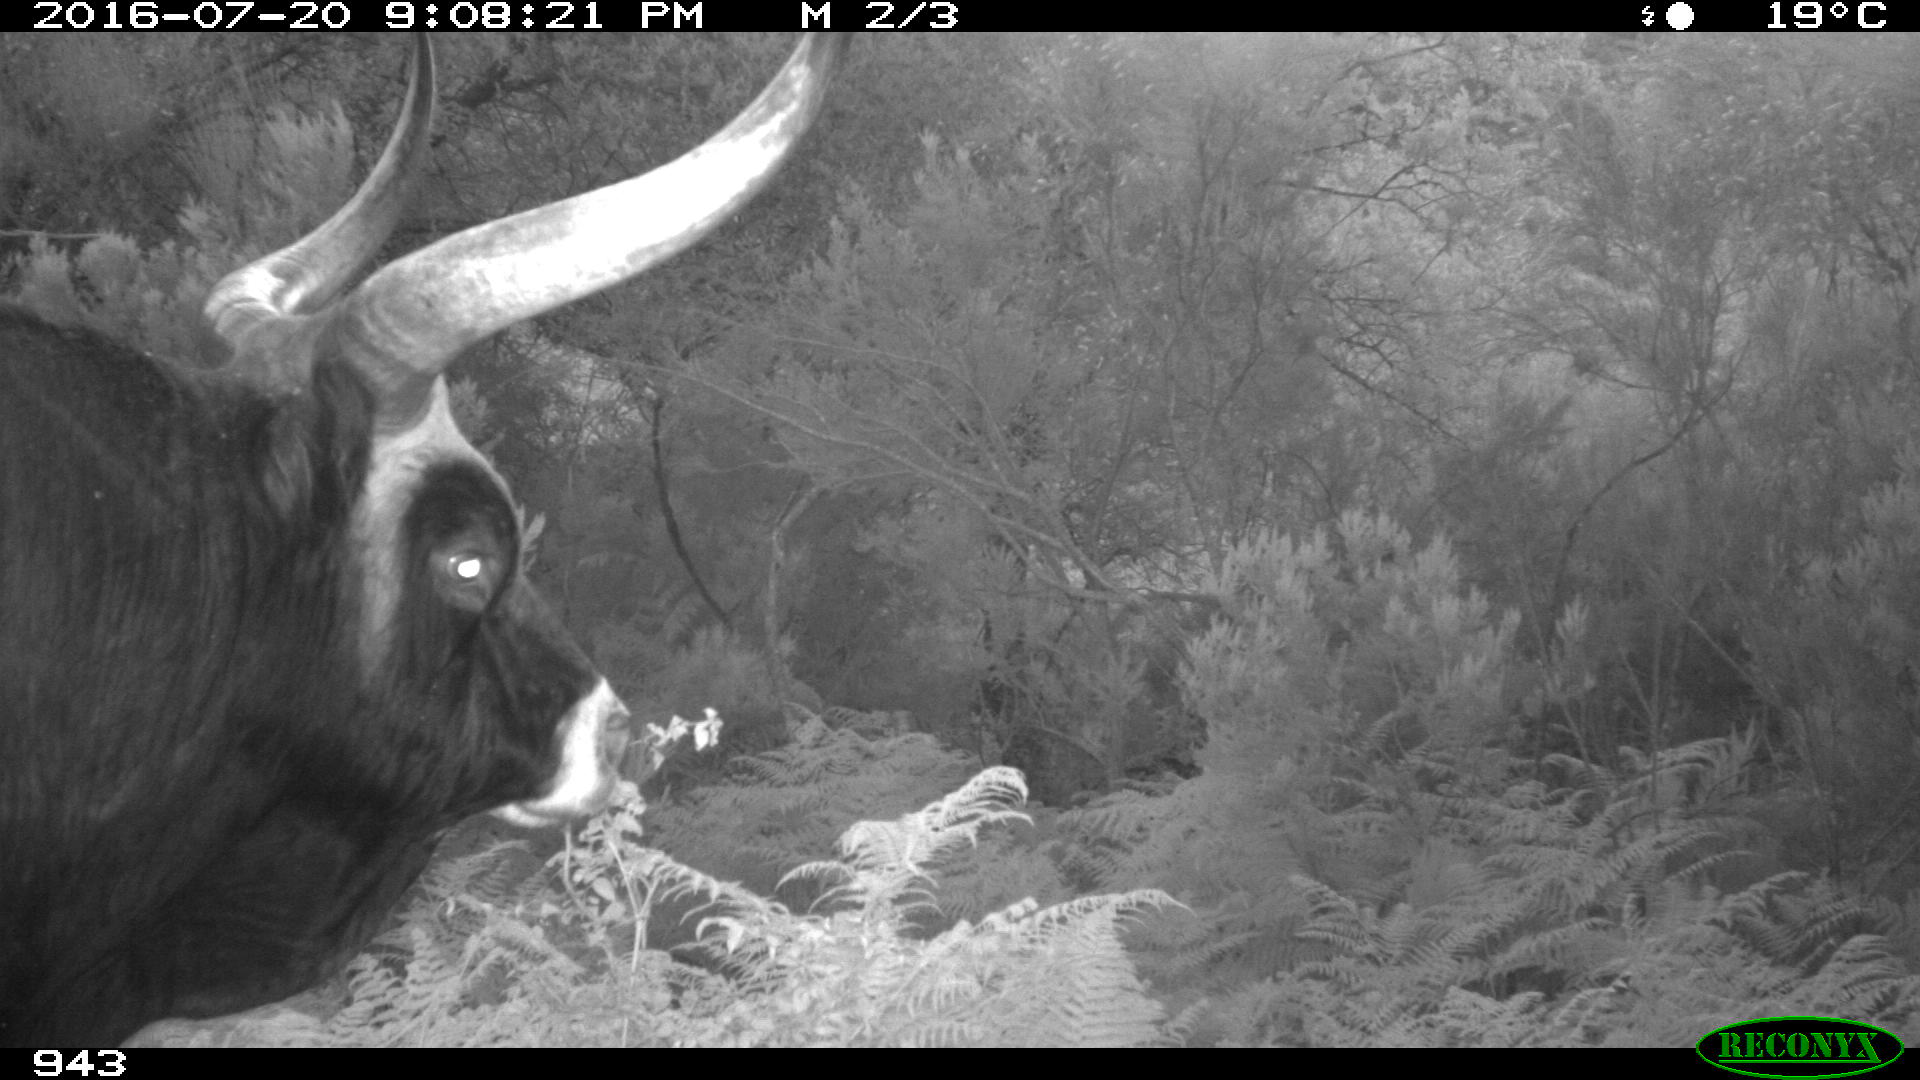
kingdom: Animalia
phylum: Chordata
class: Mammalia
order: Artiodactyla
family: Bovidae
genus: Bos
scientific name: Bos taurus
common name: Domesticated cattle
